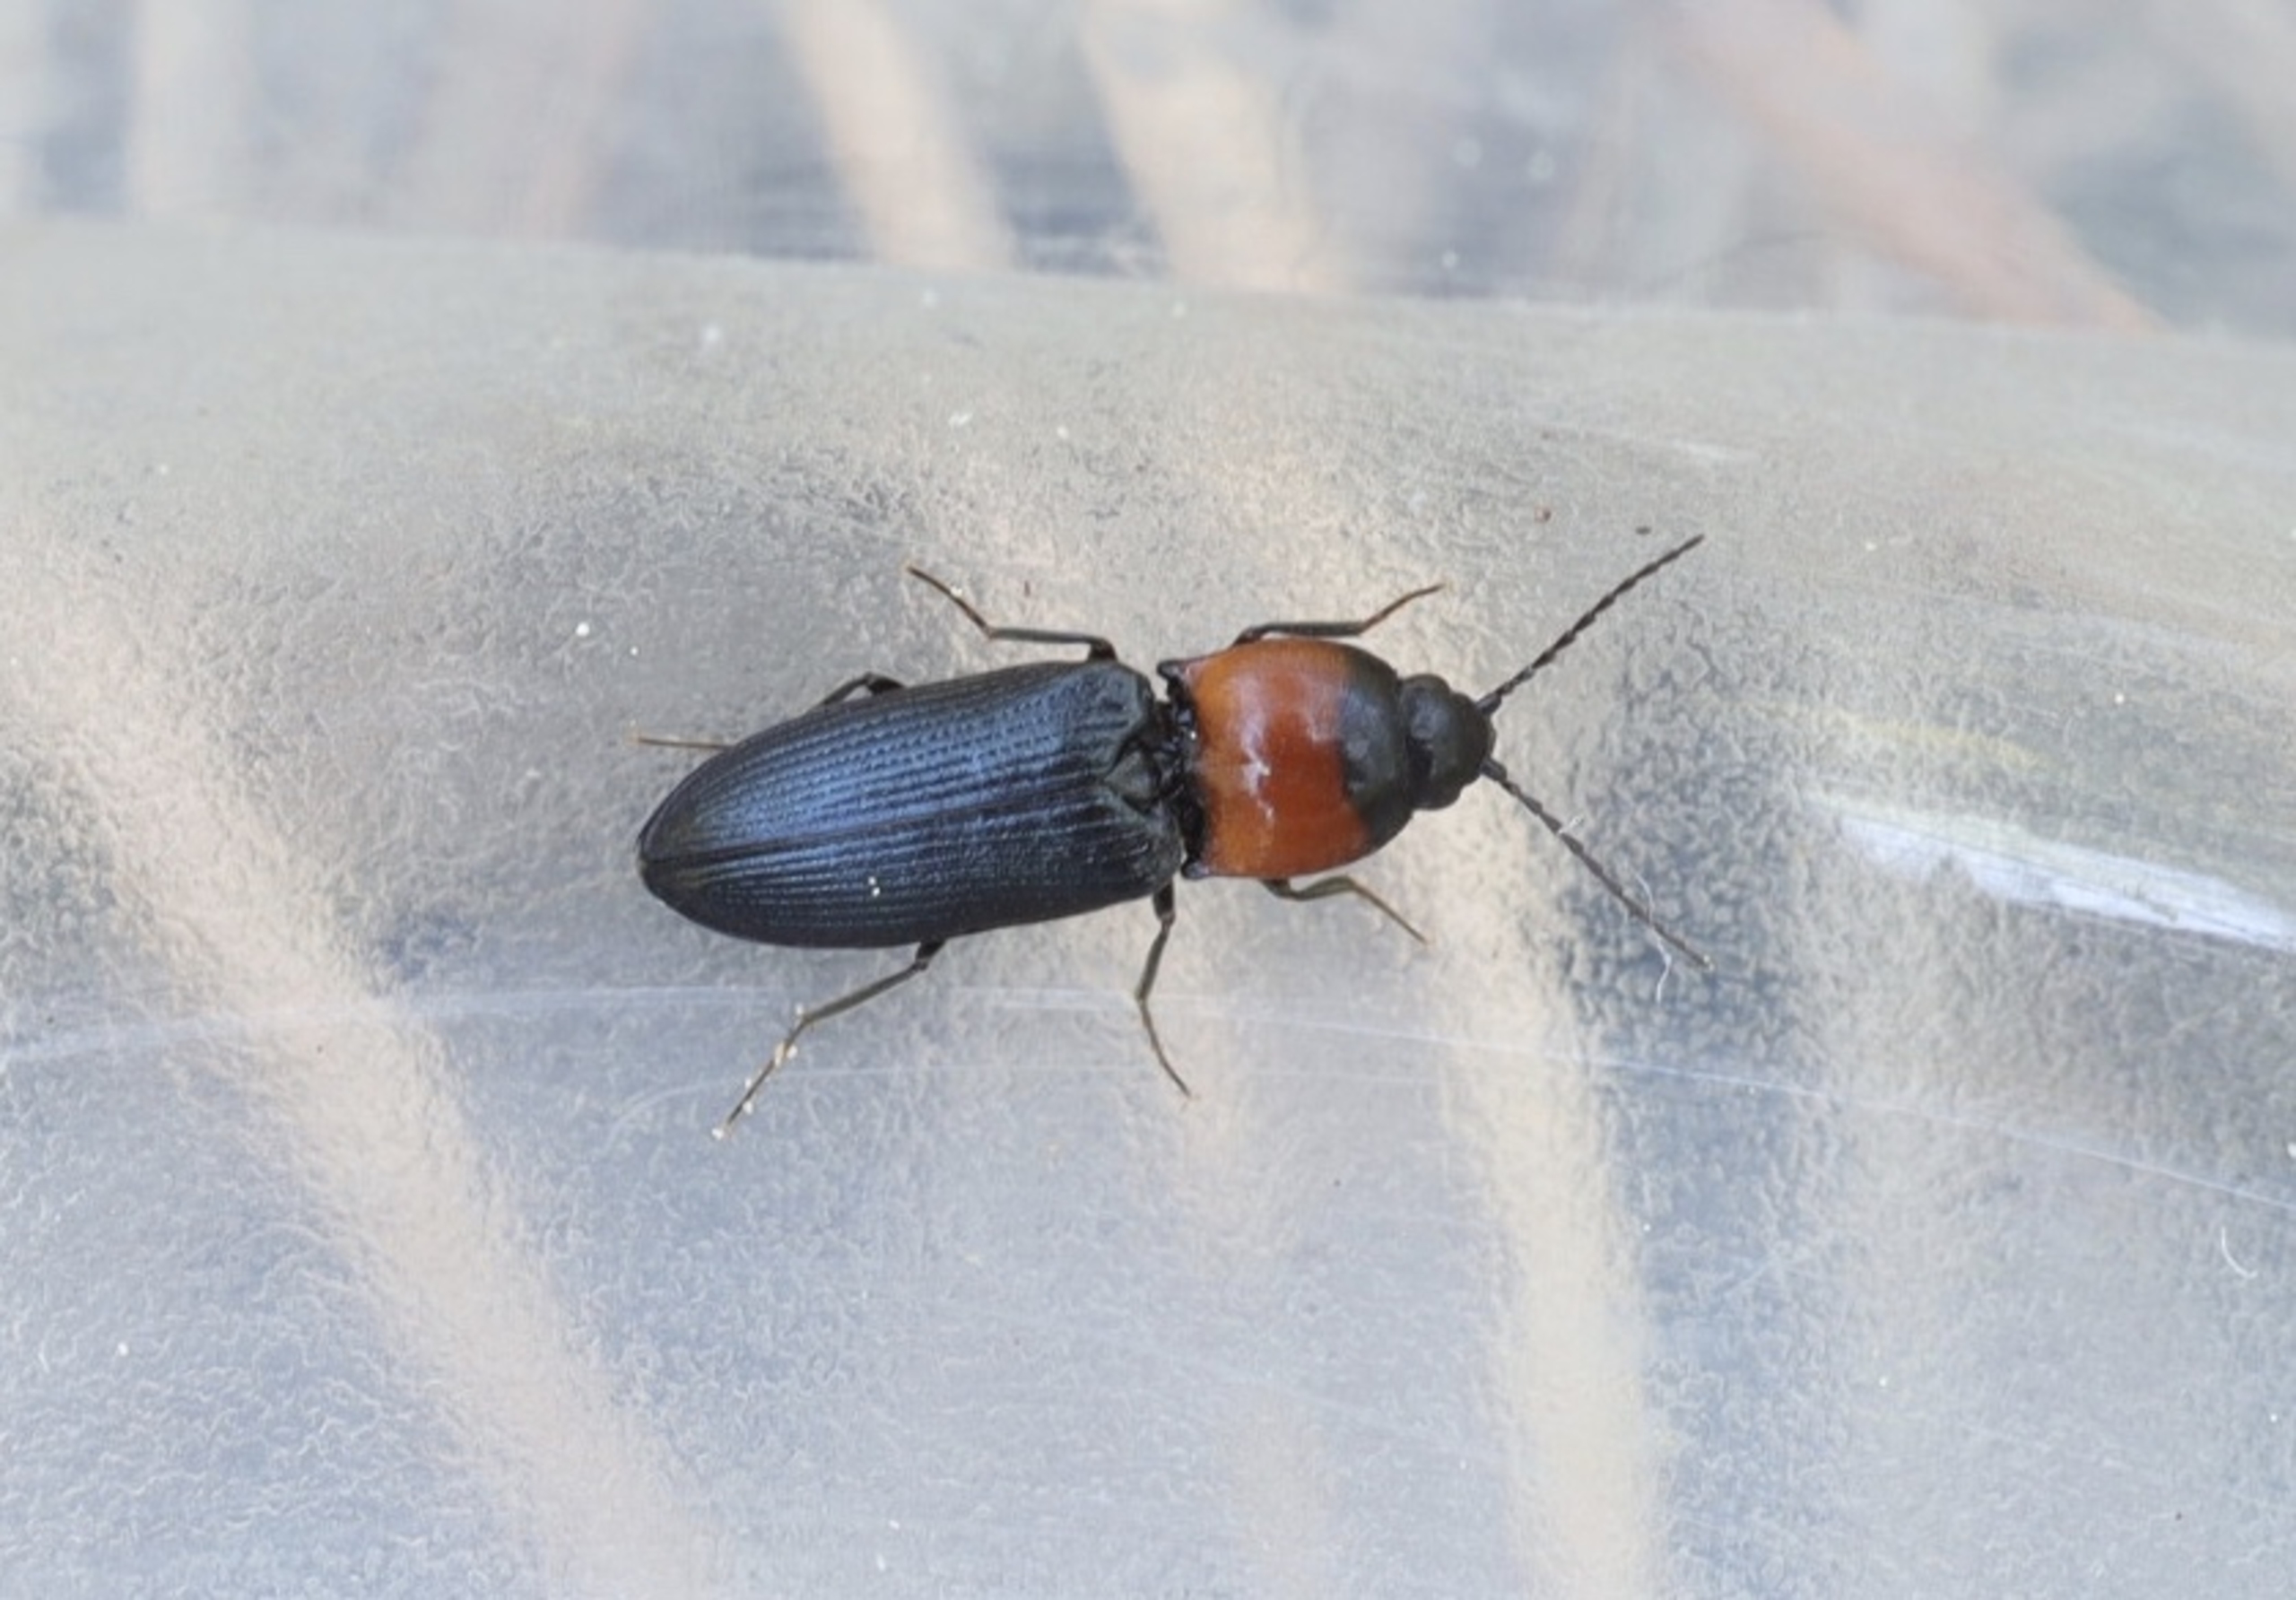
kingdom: Animalia
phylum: Arthropoda
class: Insecta
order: Coleoptera
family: Elateridae
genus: Cardiophorus
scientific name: Cardiophorus ruficollis
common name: Rødbrystet hjertesmælder
